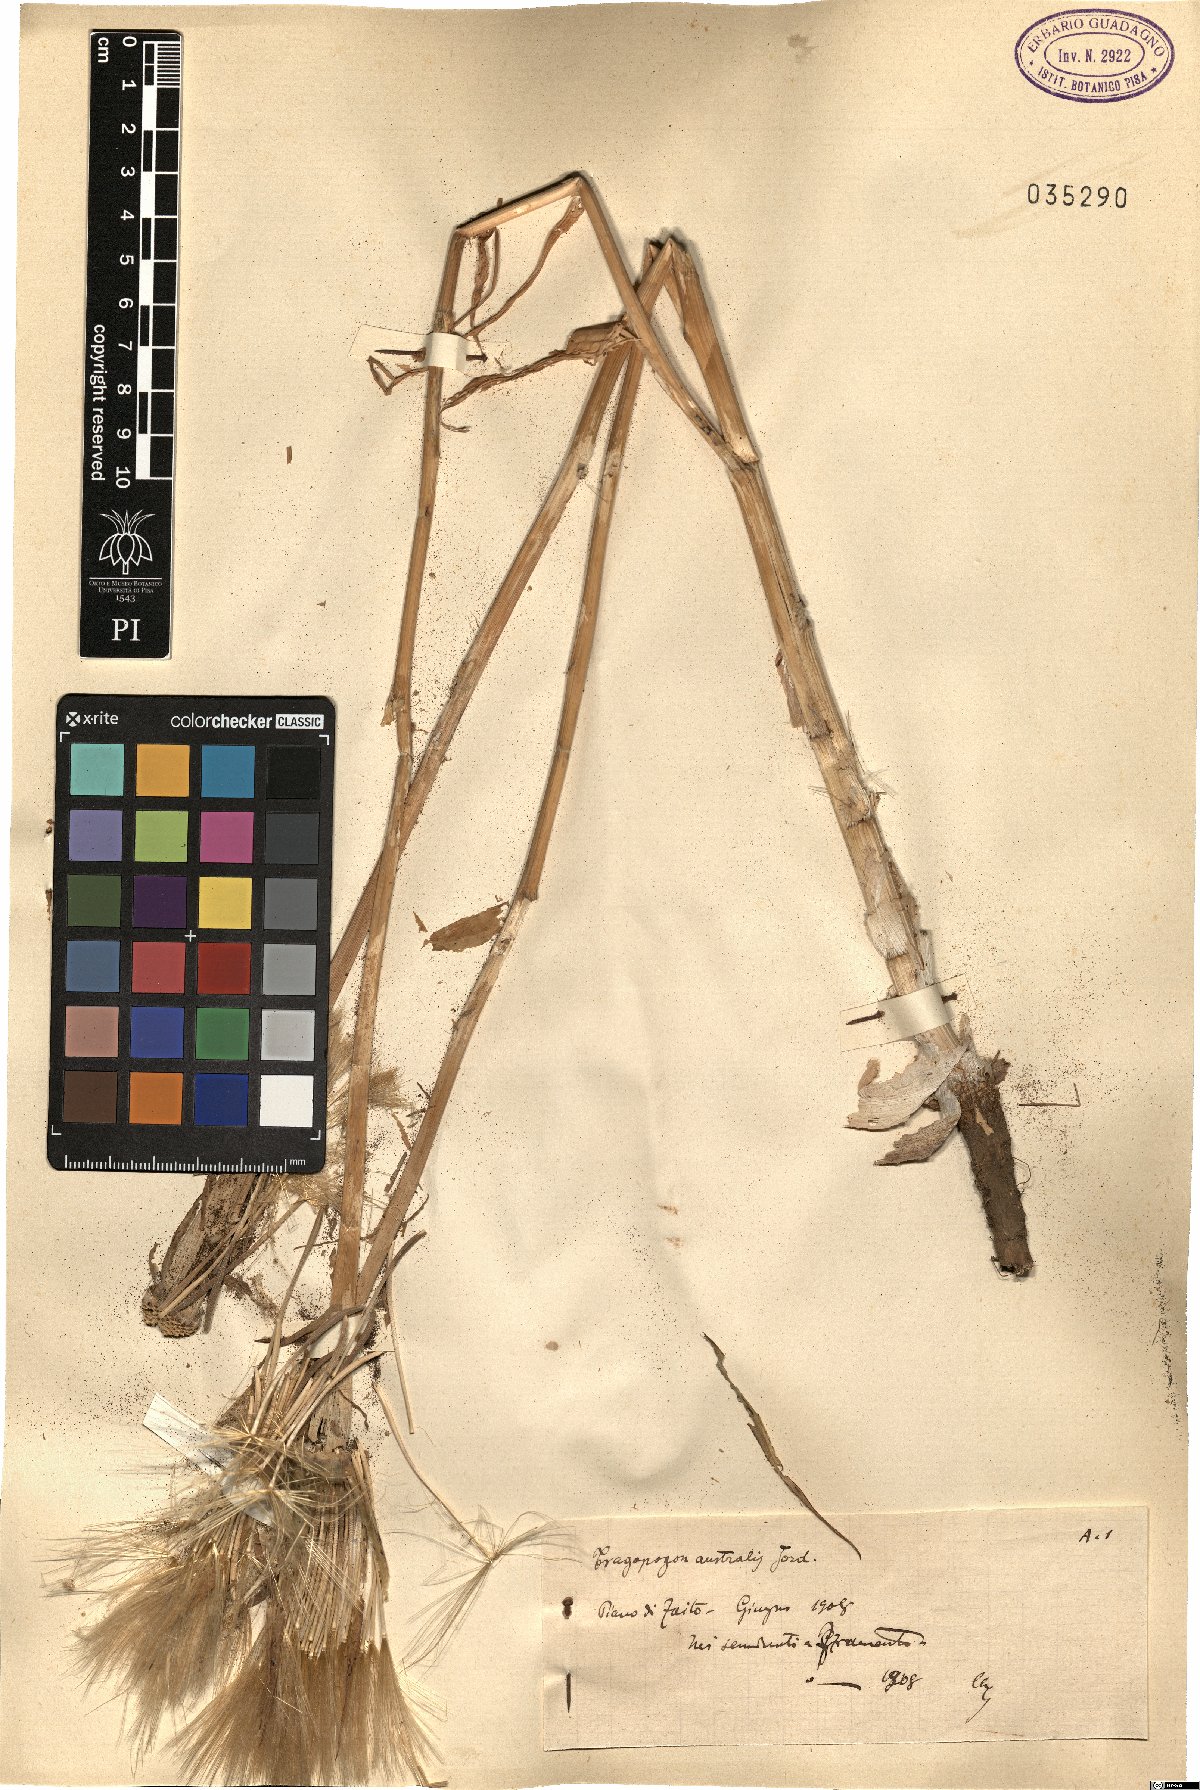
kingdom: Plantae
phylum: Tracheophyta
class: Magnoliopsida
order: Asterales
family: Asteraceae
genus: Tragopogon
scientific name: Tragopogon porrifolius
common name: Salsify
